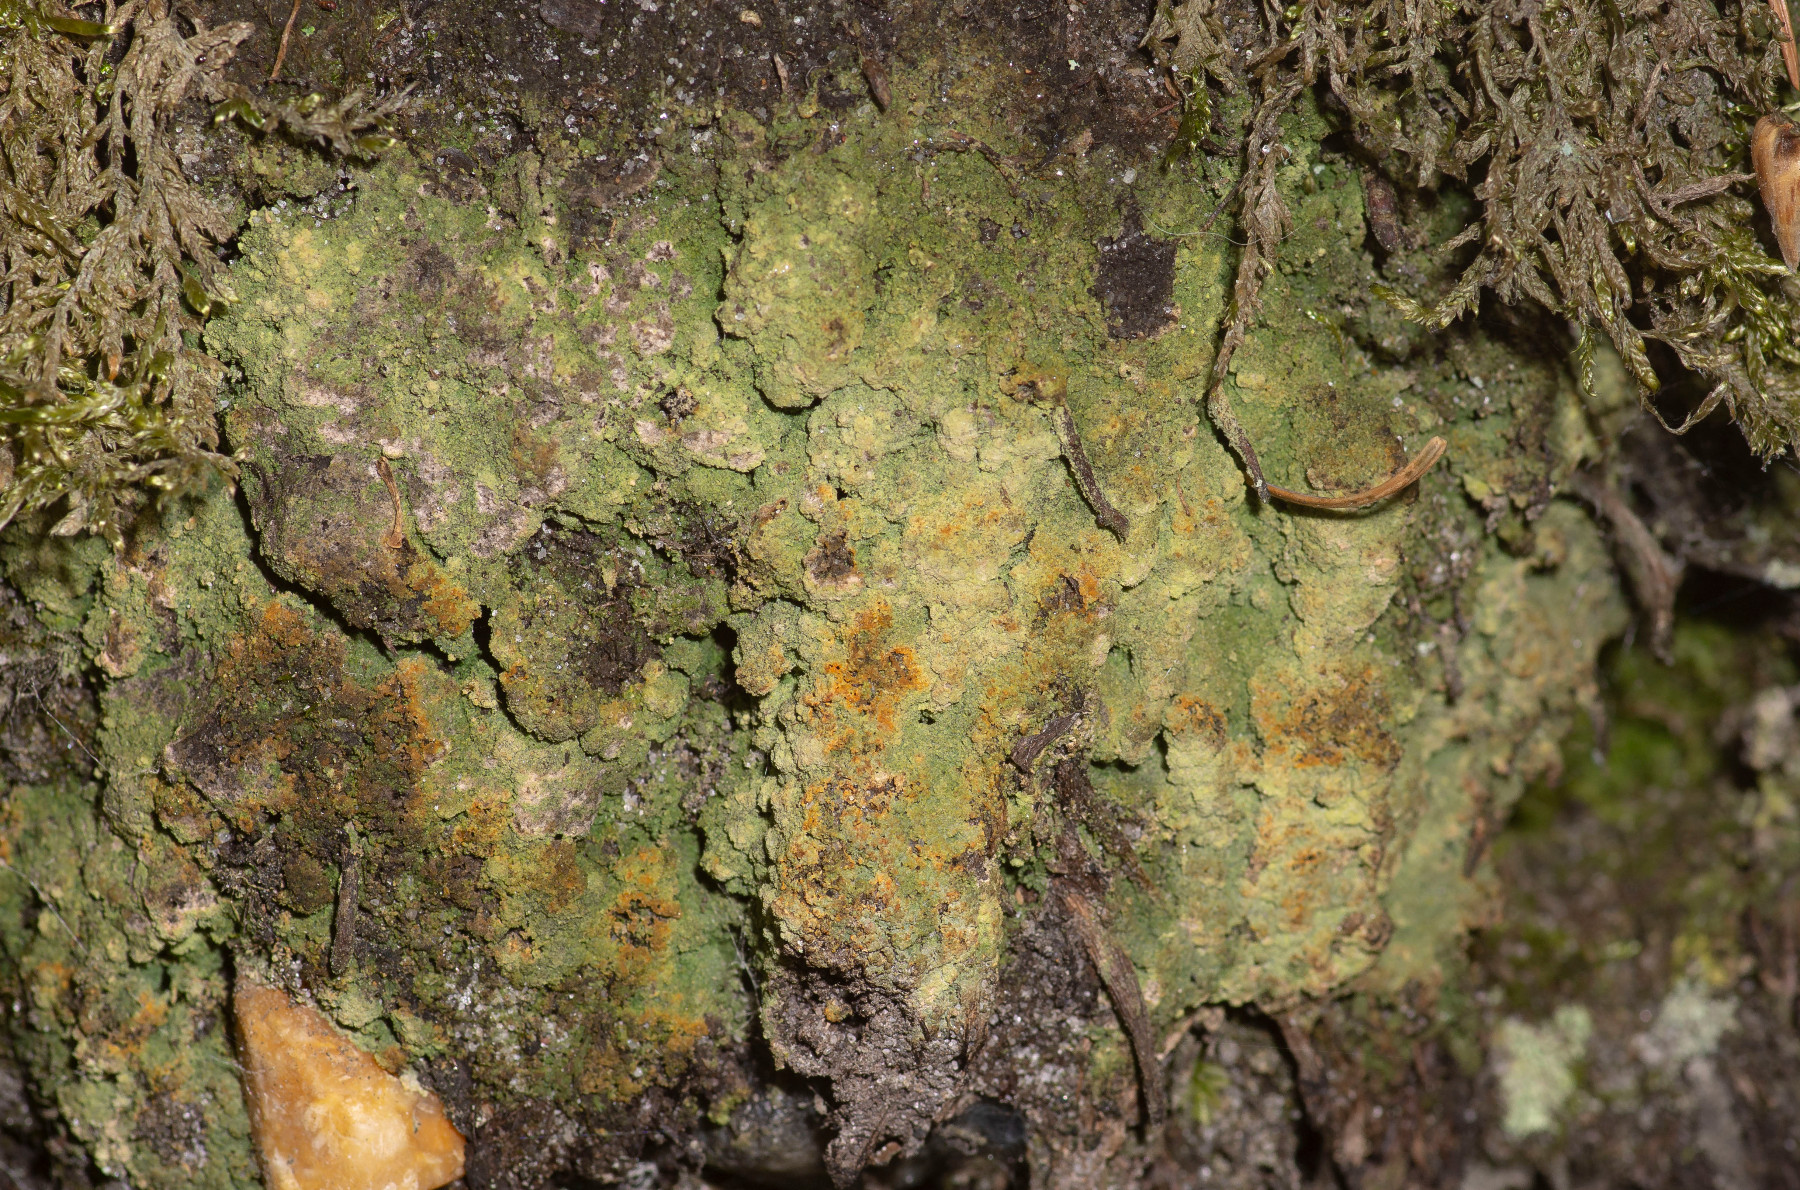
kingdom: Fungi
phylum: Ascomycota
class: Lecanoromycetes
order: Baeomycetales
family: Trapeliaceae
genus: Trapeliopsis
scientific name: Trapeliopsis pseudogranulosa
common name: gulbroget skivelav
